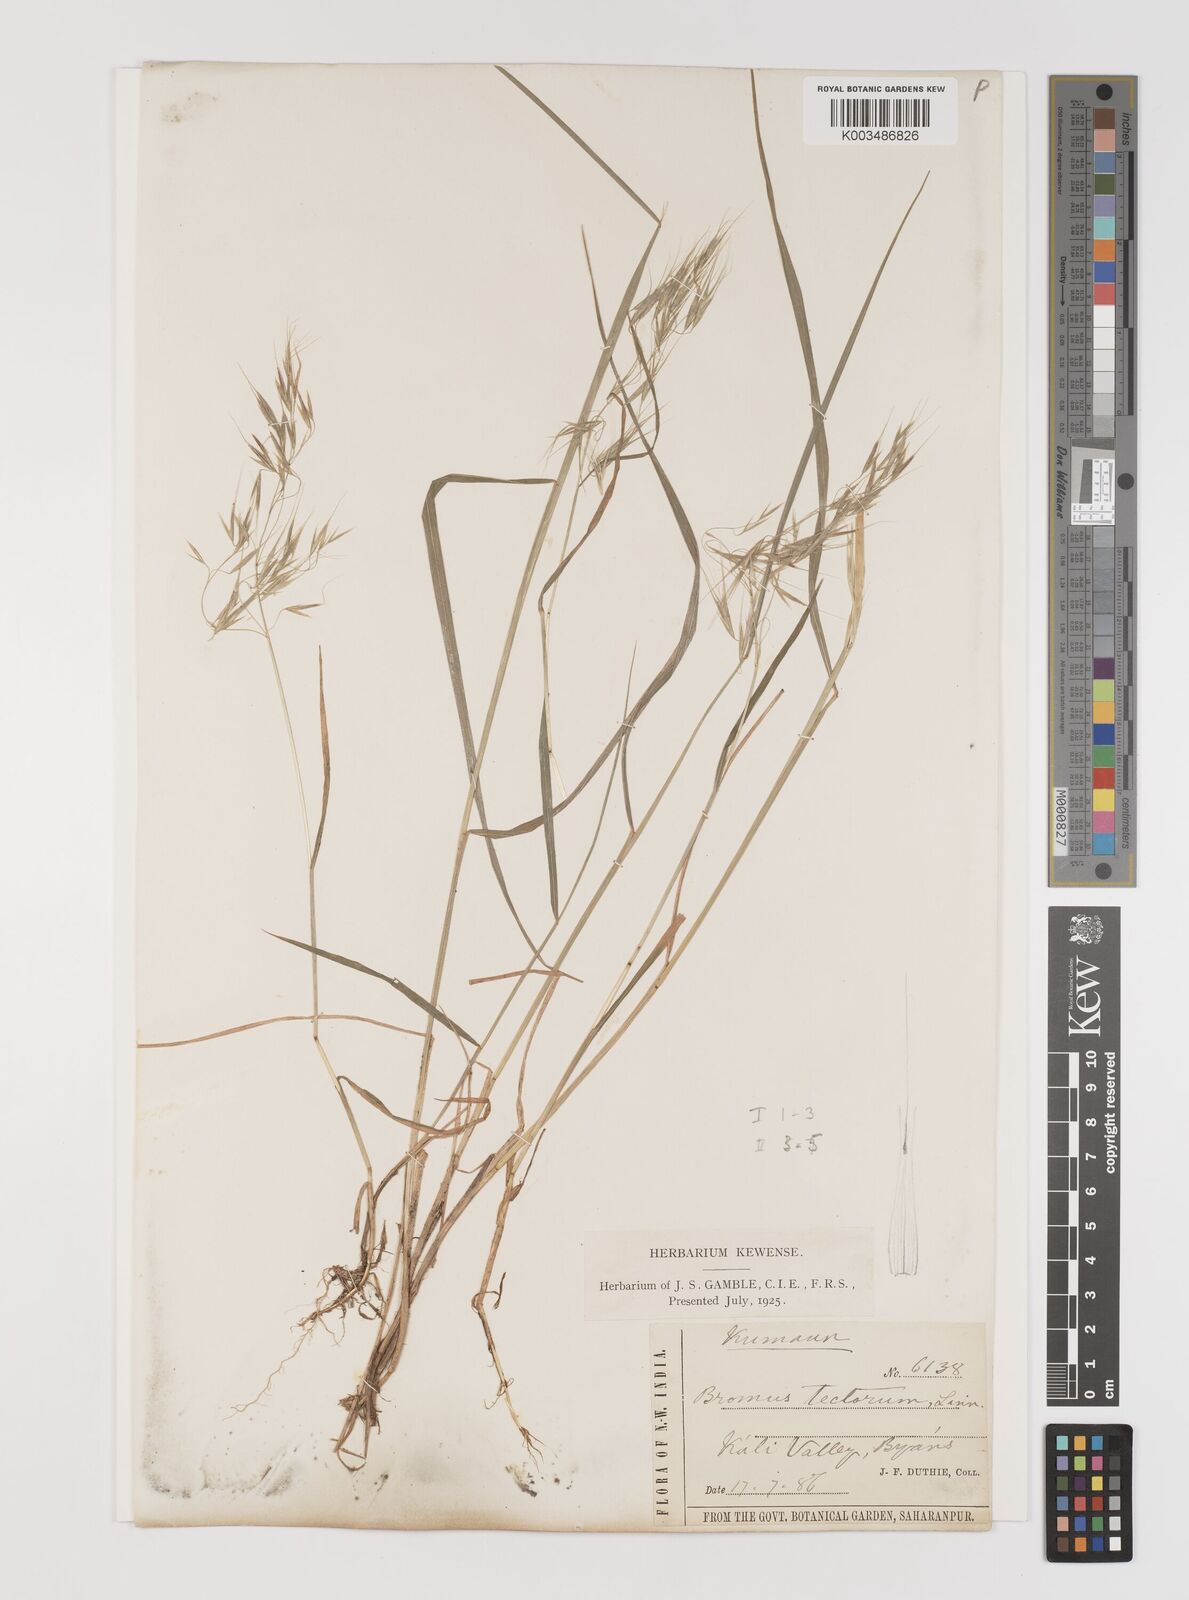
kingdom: Plantae
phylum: Tracheophyta
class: Liliopsida
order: Poales
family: Poaceae
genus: Bromus
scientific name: Bromus tectorum
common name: Cheatgrass
